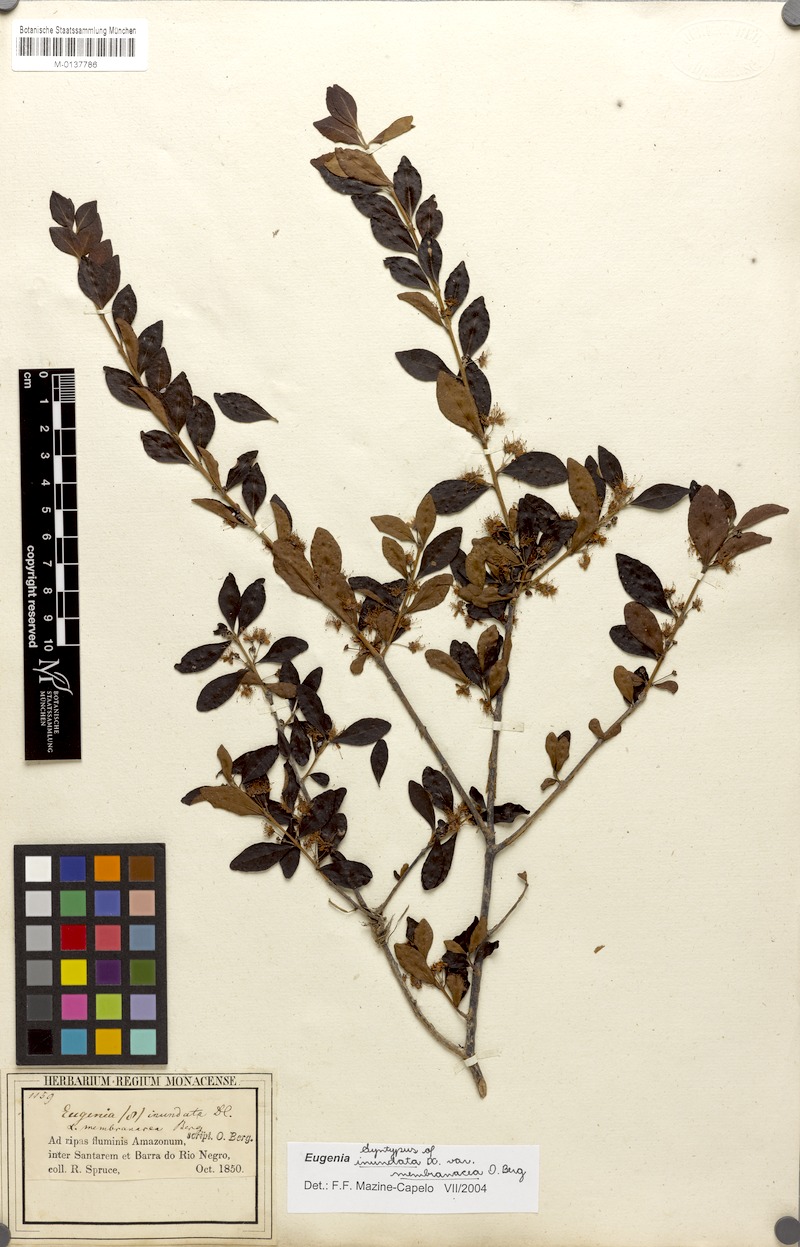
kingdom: Plantae
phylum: Tracheophyta
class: Magnoliopsida
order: Myrtales
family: Myrtaceae
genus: Eugenia
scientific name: Eugenia inundata
